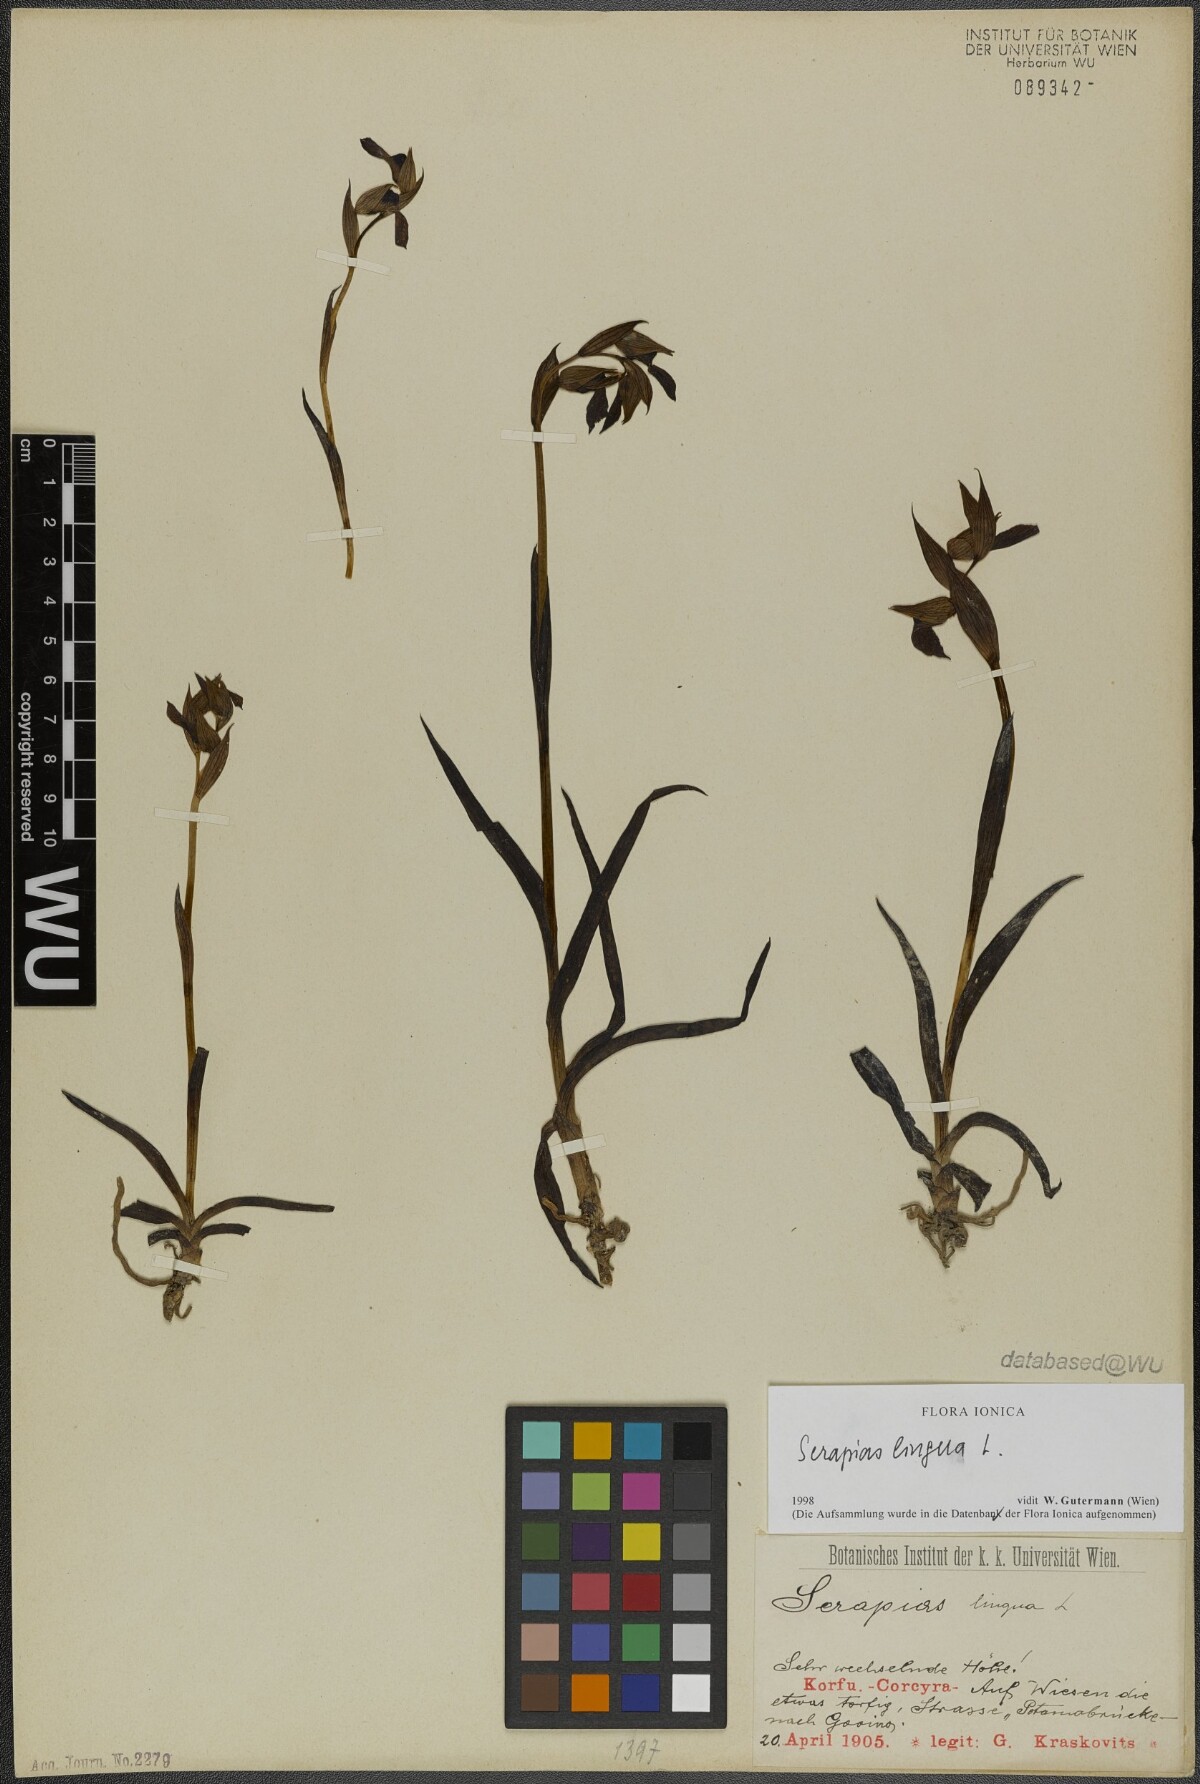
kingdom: Plantae
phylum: Tracheophyta
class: Liliopsida
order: Asparagales
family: Orchidaceae
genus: Serapias
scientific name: Serapias lingua
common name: Tongue-orchid
